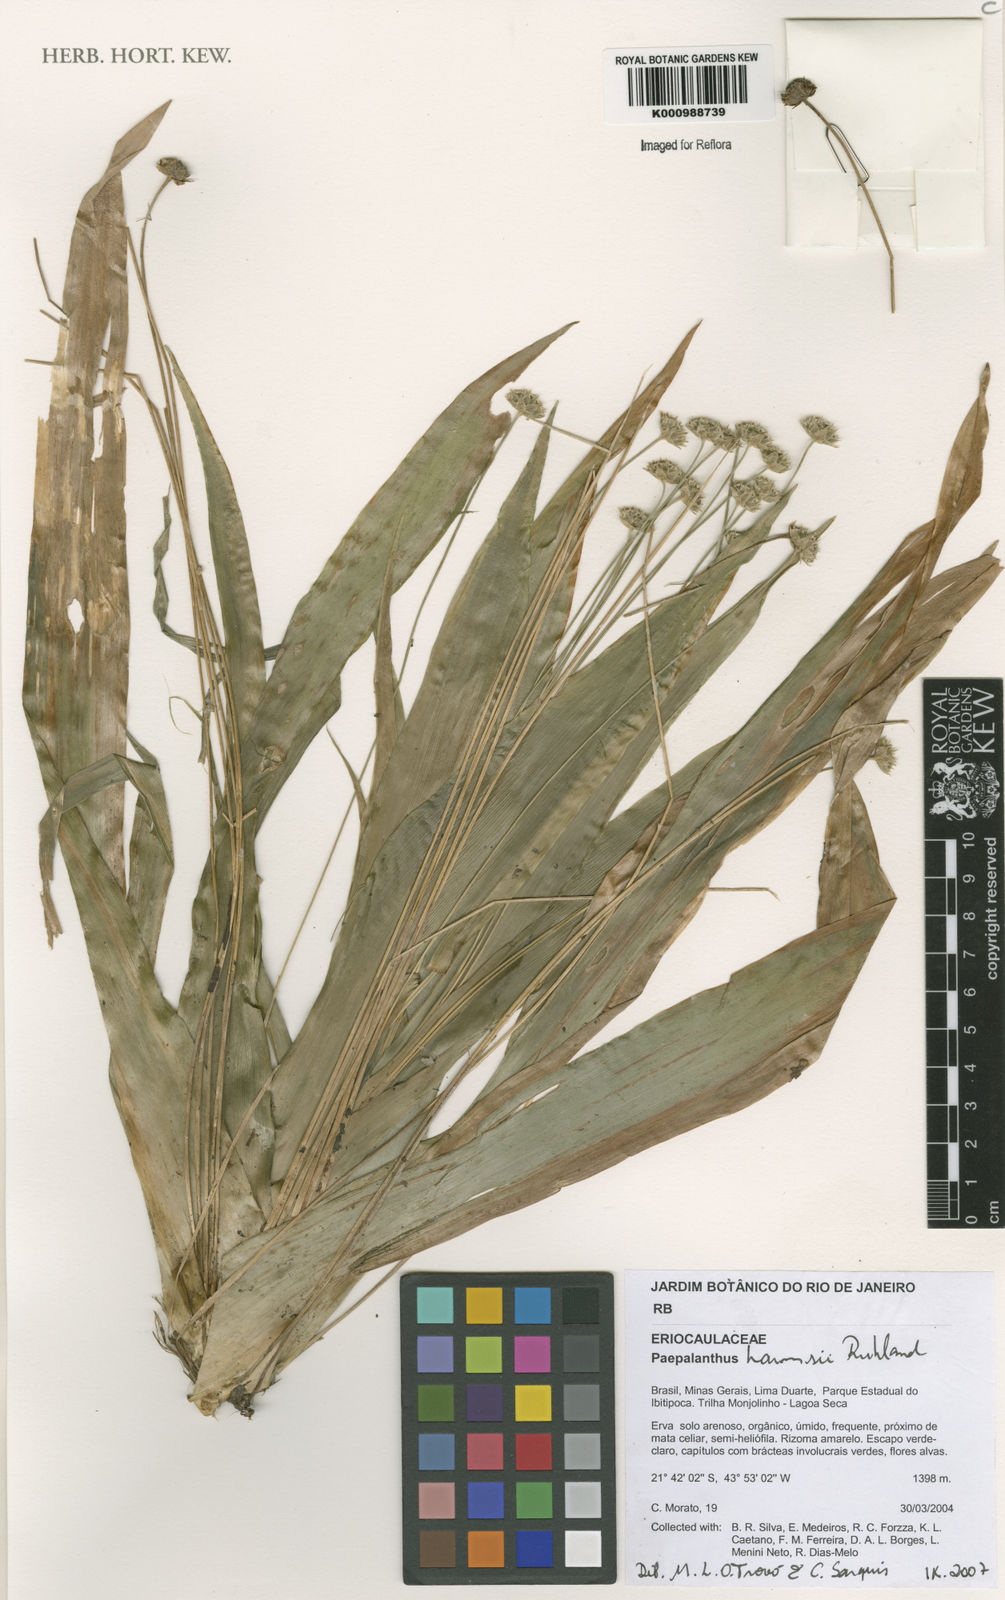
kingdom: Plantae
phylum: Tracheophyta
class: Liliopsida
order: Poales
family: Eriocaulaceae
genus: Paepalanthus
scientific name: Paepalanthus harmsii
